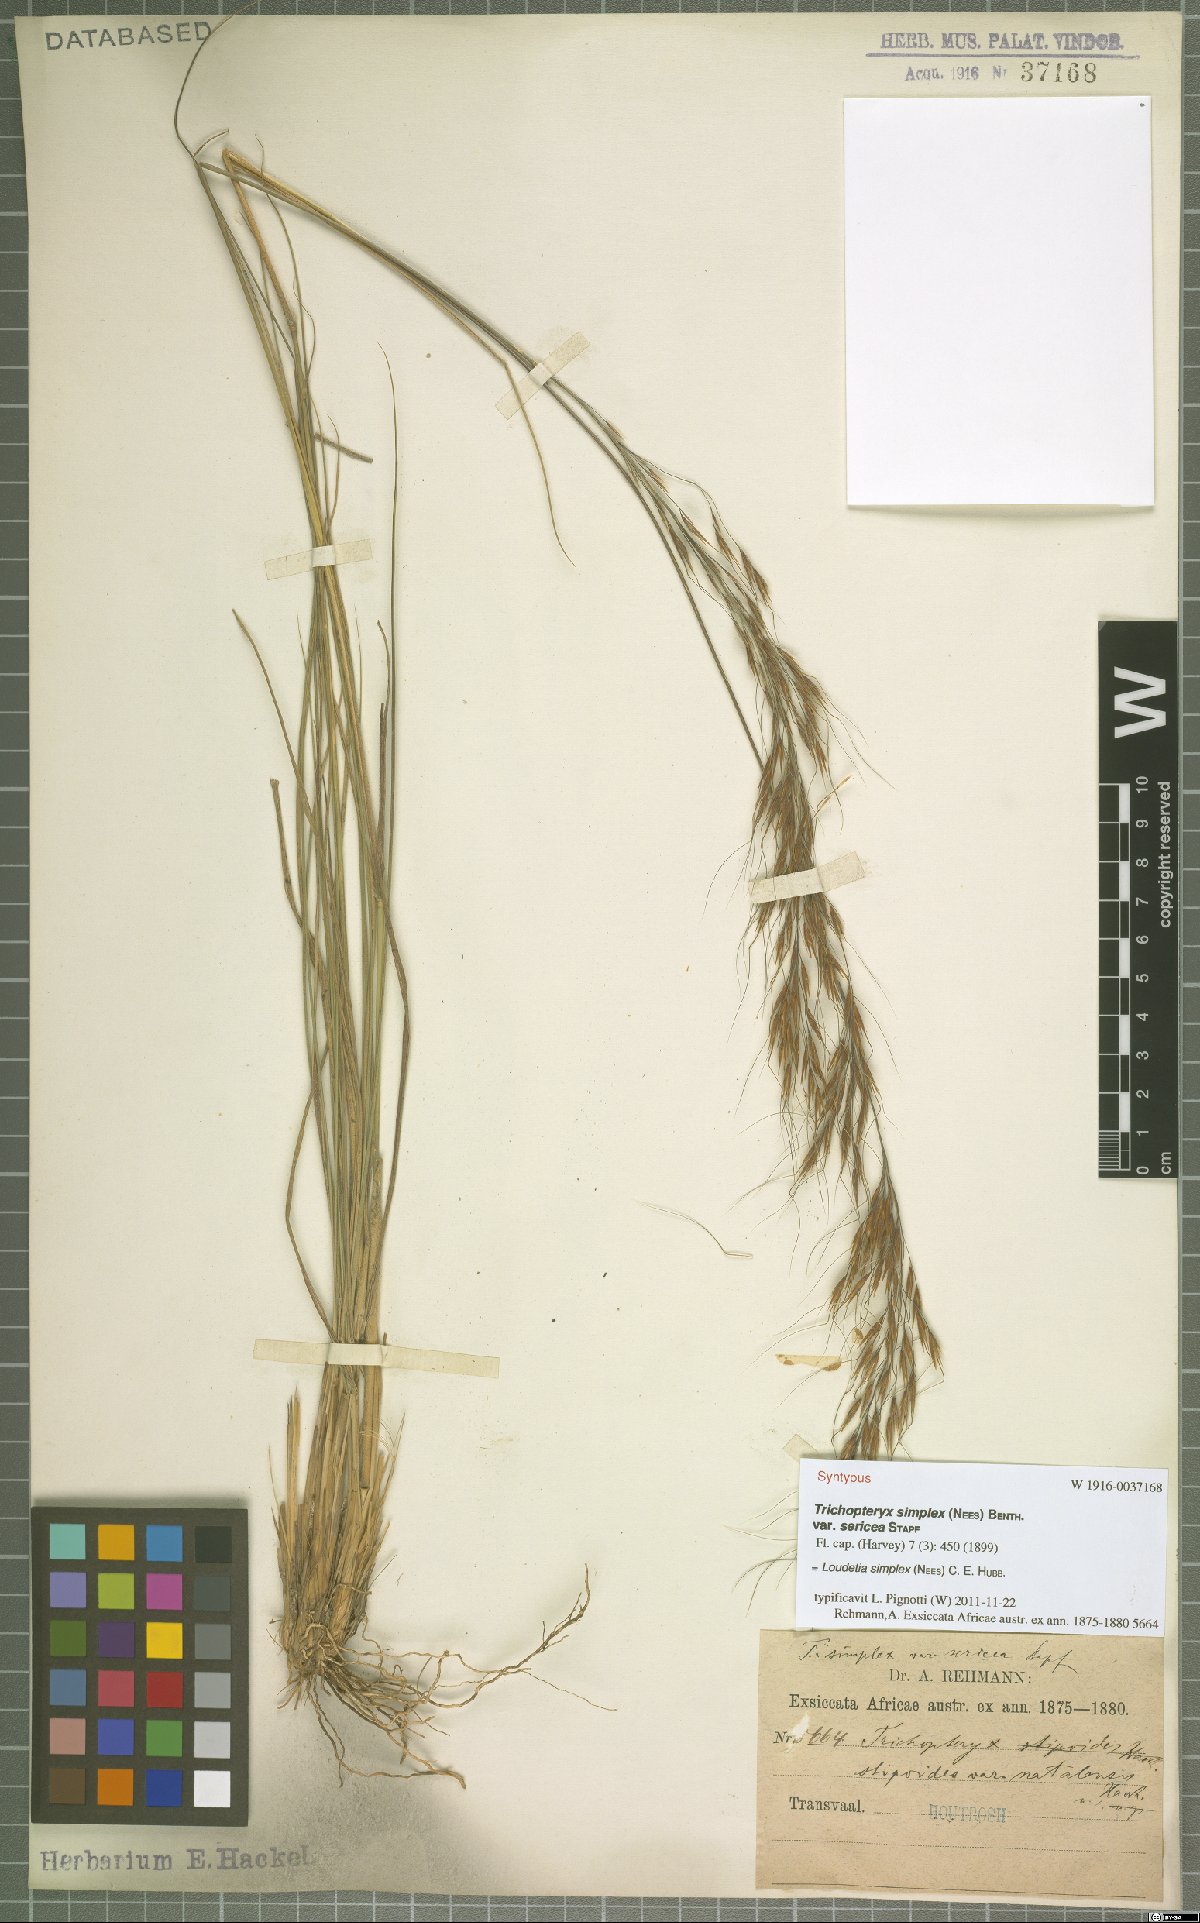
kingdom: Plantae
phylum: Tracheophyta
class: Liliopsida
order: Poales
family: Poaceae
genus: Loudetia
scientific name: Loudetia simplex
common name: Common russet grass
